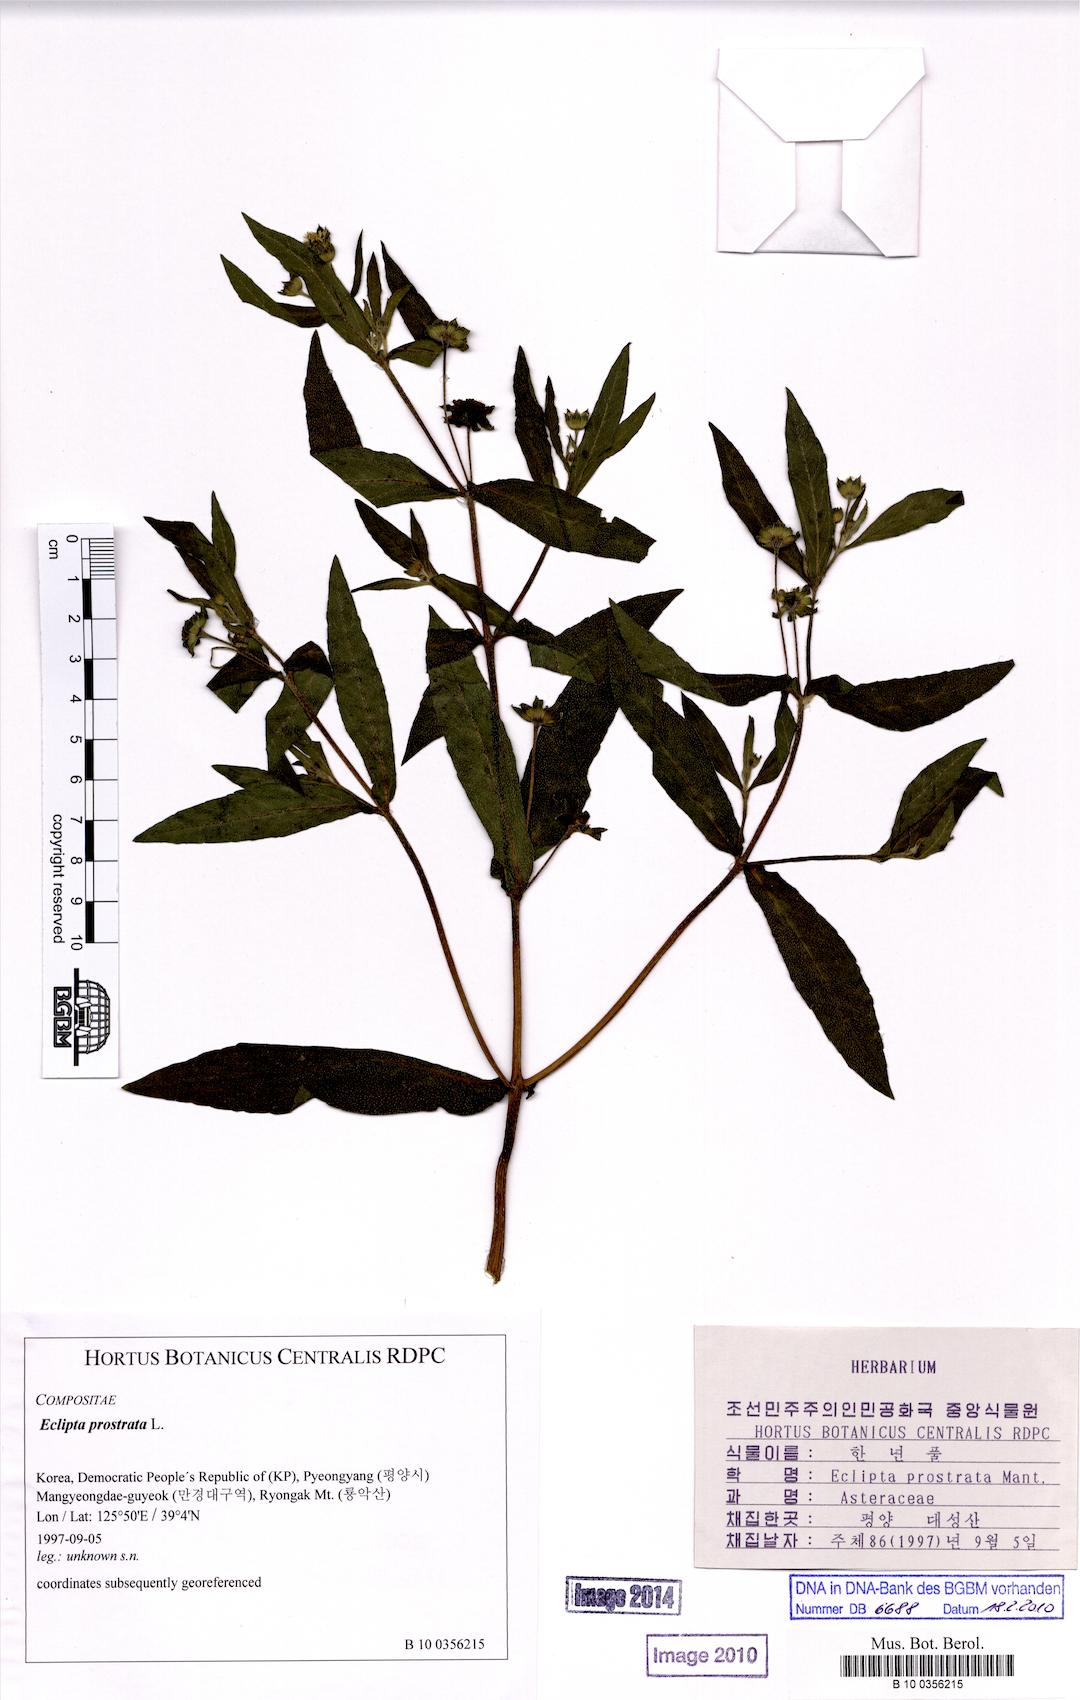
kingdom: Plantae
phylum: Tracheophyta
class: Magnoliopsida
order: Asterales
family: Asteraceae
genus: Eclipta
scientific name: Eclipta prostrata
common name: False daisy
